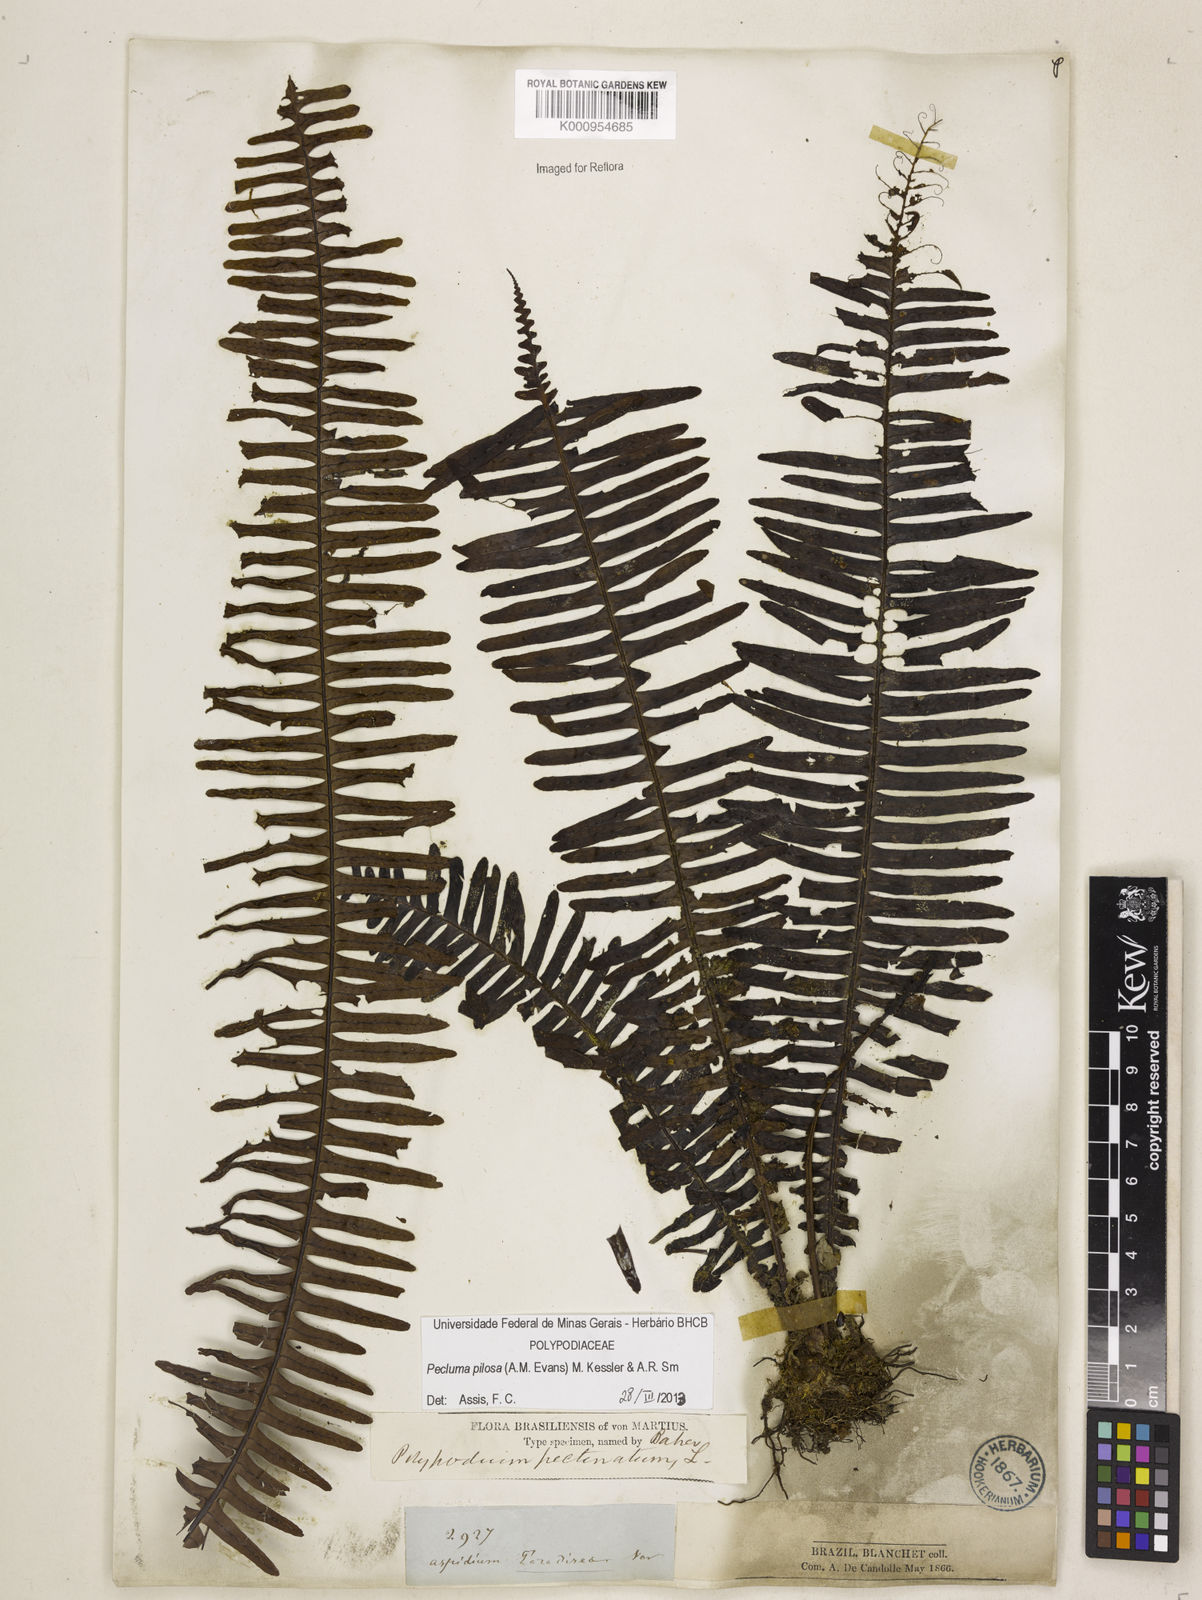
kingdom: Plantae
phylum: Tracheophyta
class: Polypodiopsida
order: Polypodiales
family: Polypodiaceae
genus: Pecluma
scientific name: Pecluma pilosa
